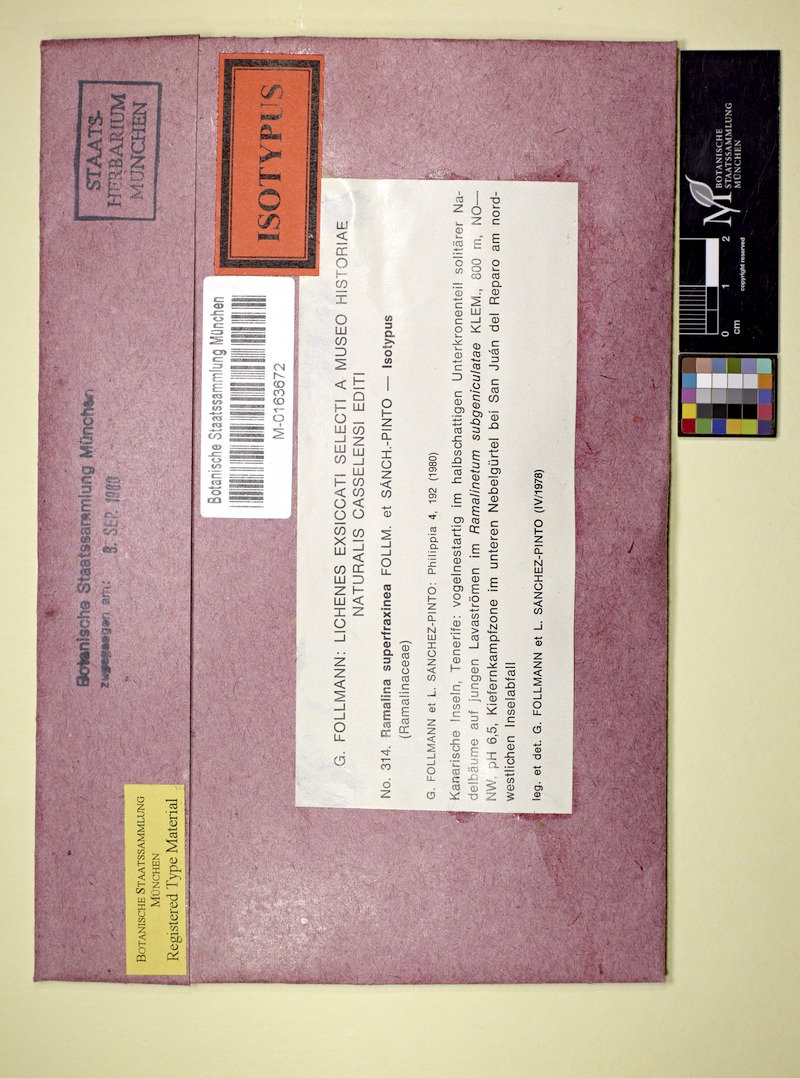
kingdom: Fungi
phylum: Ascomycota
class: Lecanoromycetes
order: Lecanorales
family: Ramalinaceae
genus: Ramalina
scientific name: Ramalina superfraxinea
